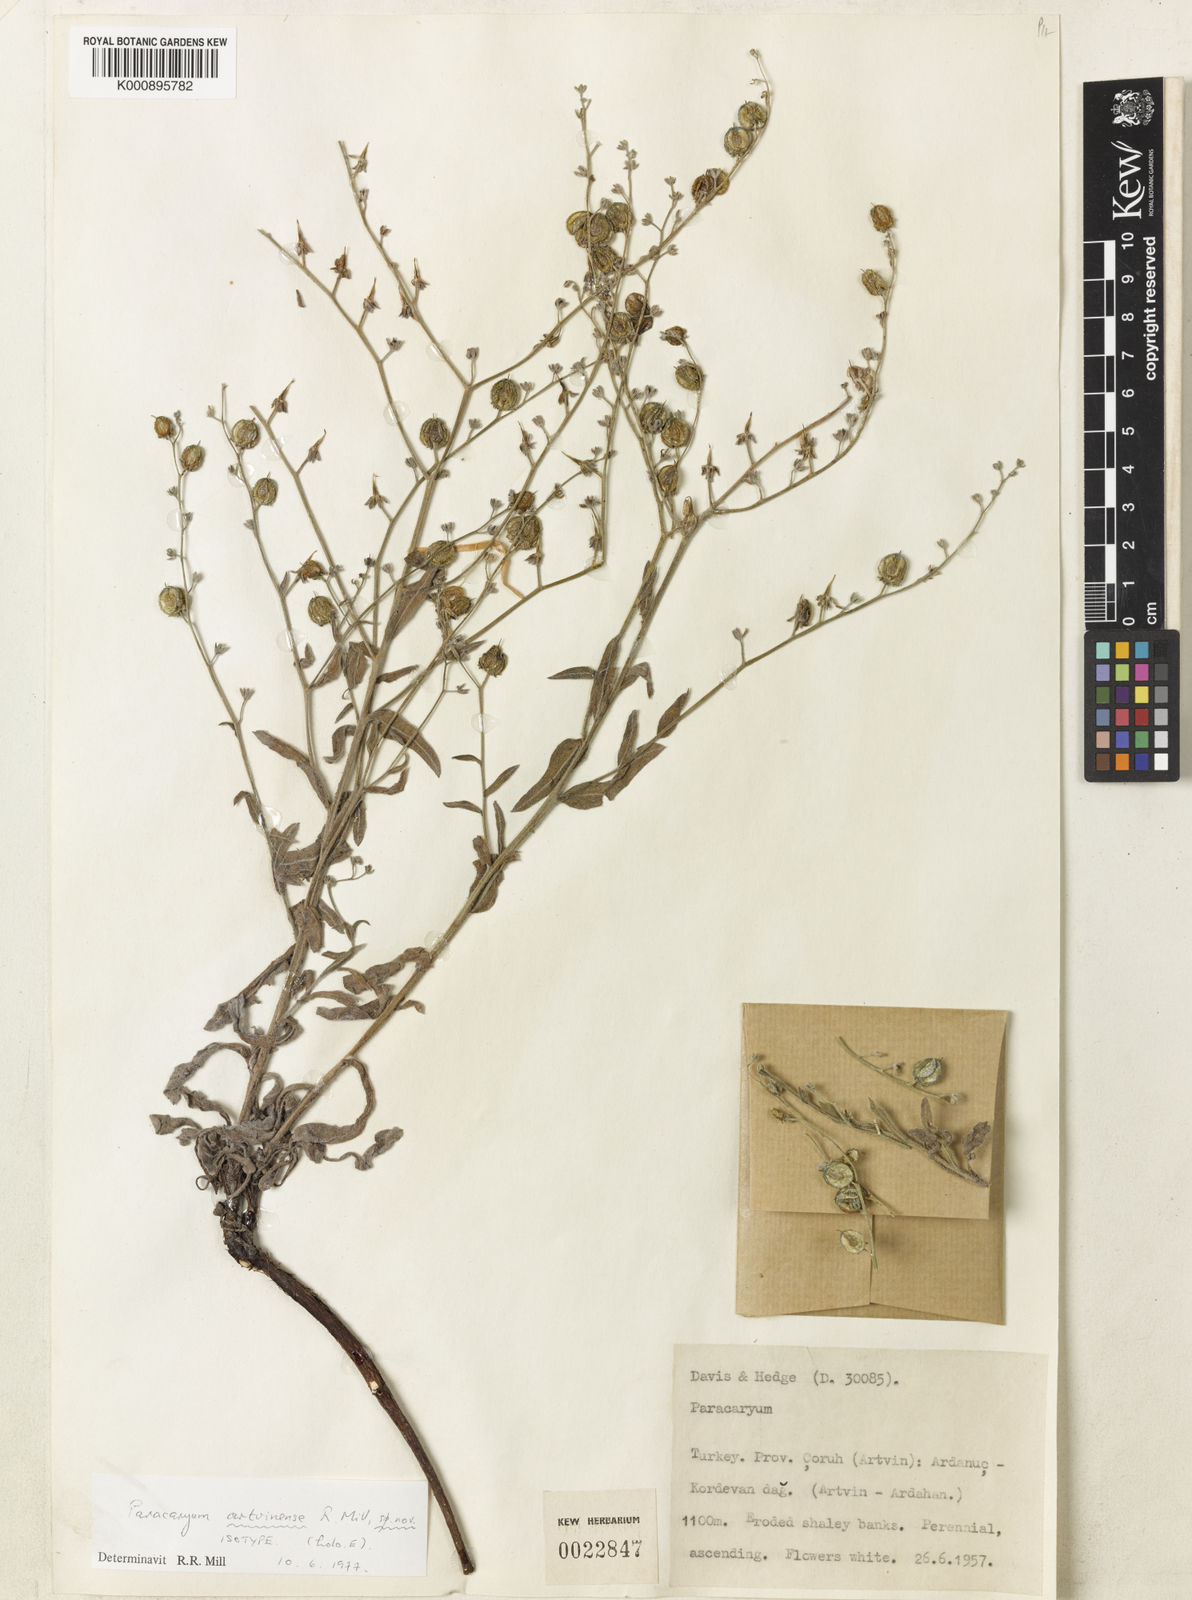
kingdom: Plantae
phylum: Tracheophyta
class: Magnoliopsida
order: Boraginales
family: Boraginaceae
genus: Paracaryum
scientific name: Paracaryum artvinense
